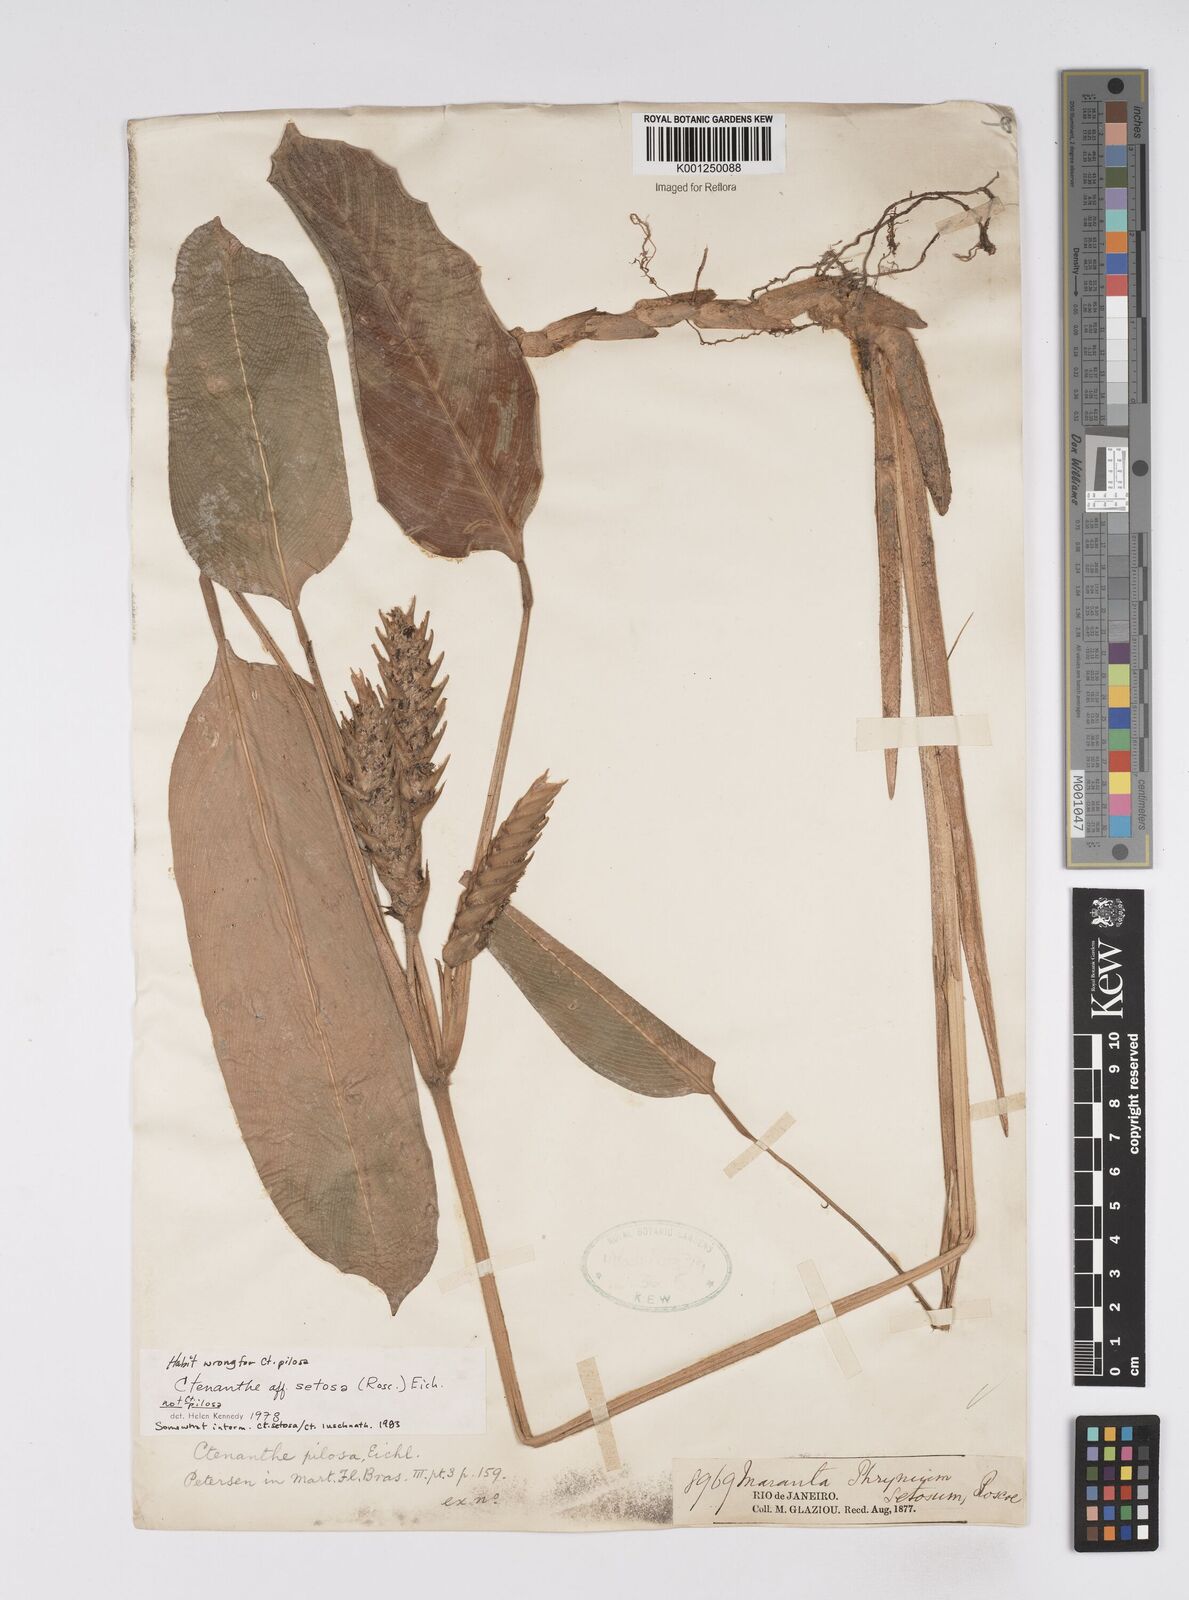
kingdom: Plantae
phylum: Tracheophyta
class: Liliopsida
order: Zingiberales
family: Marantaceae
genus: Ctenanthe
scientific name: Ctenanthe
